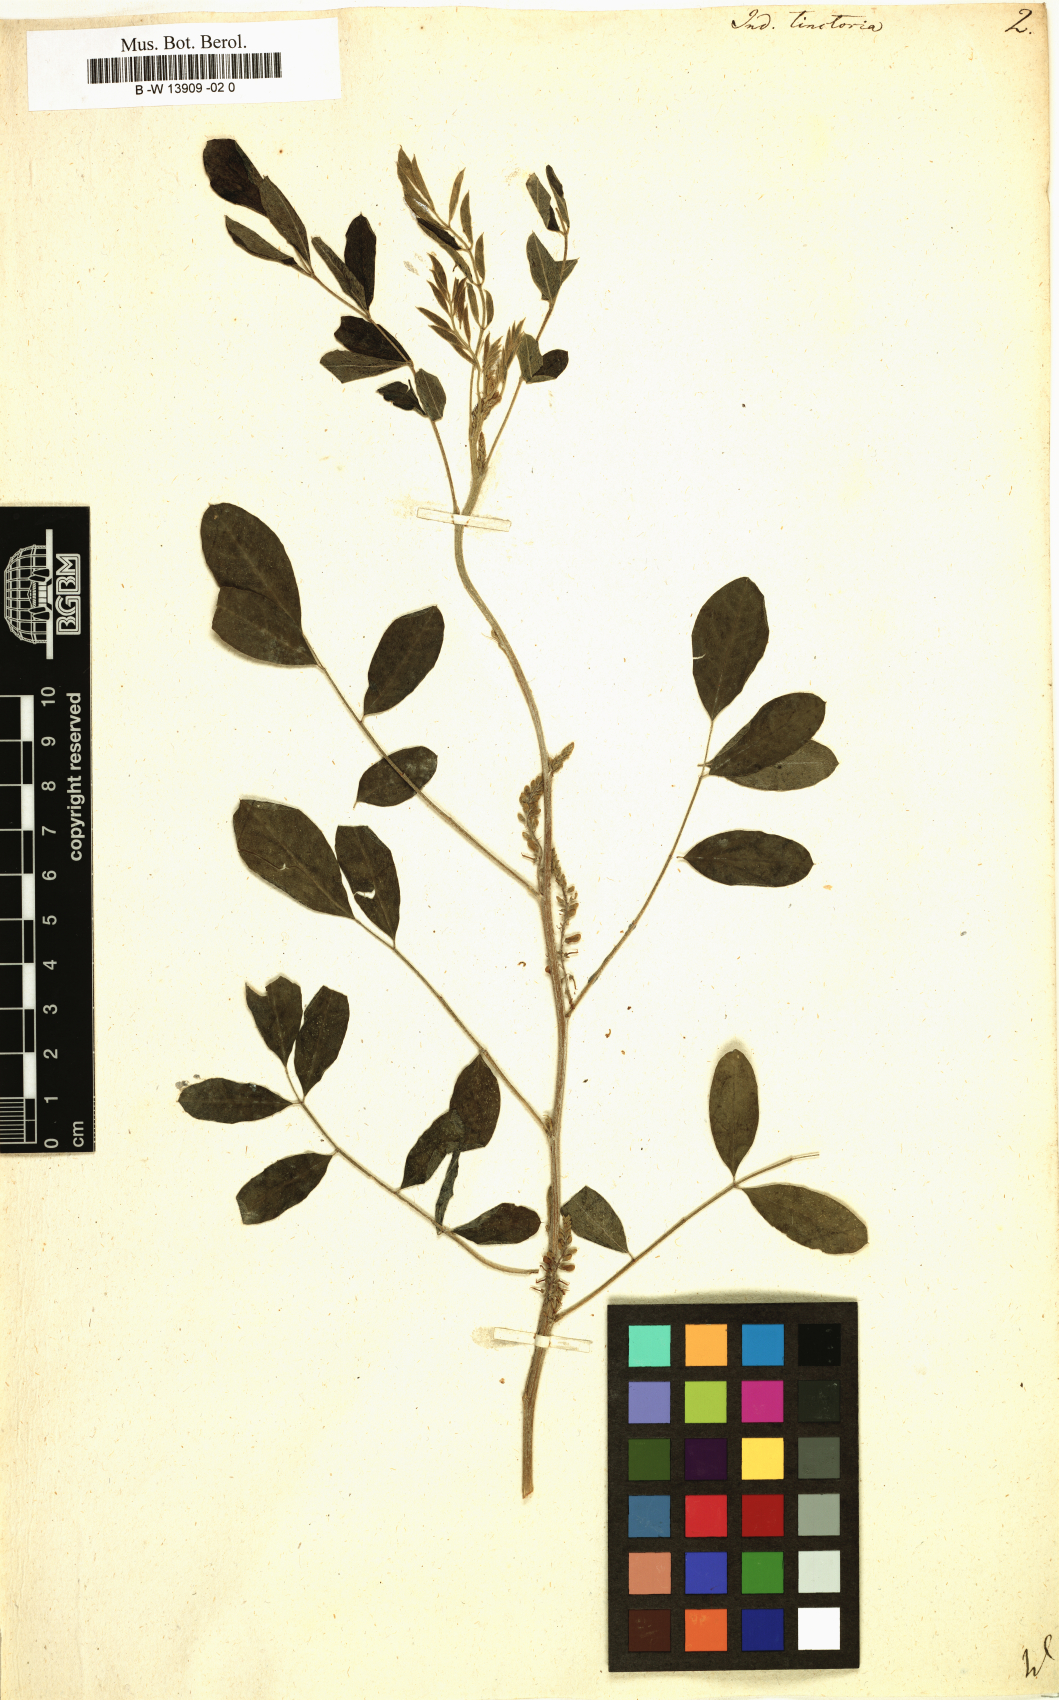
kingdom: Plantae
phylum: Tracheophyta
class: Magnoliopsida
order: Fabales
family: Fabaceae
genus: Indigofera
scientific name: Indigofera tinctoria
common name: True indigo
